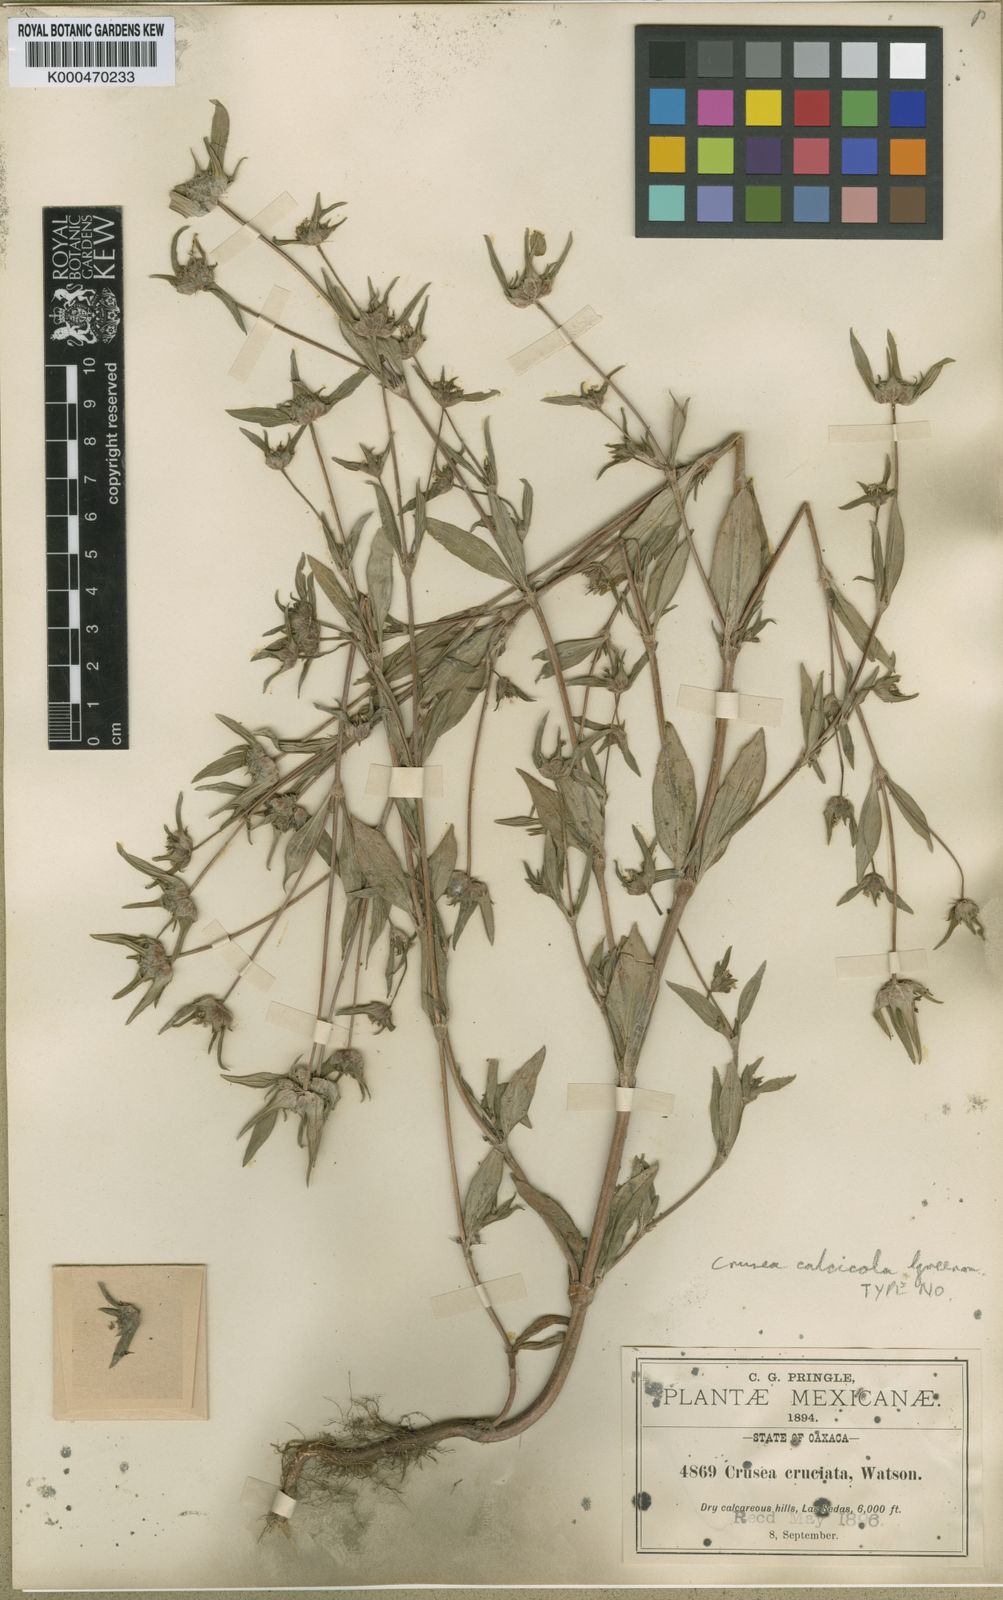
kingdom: Plantae
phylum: Tracheophyta
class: Magnoliopsida
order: Gentianales
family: Rubiaceae
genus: Crusea
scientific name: Crusea calcicola
